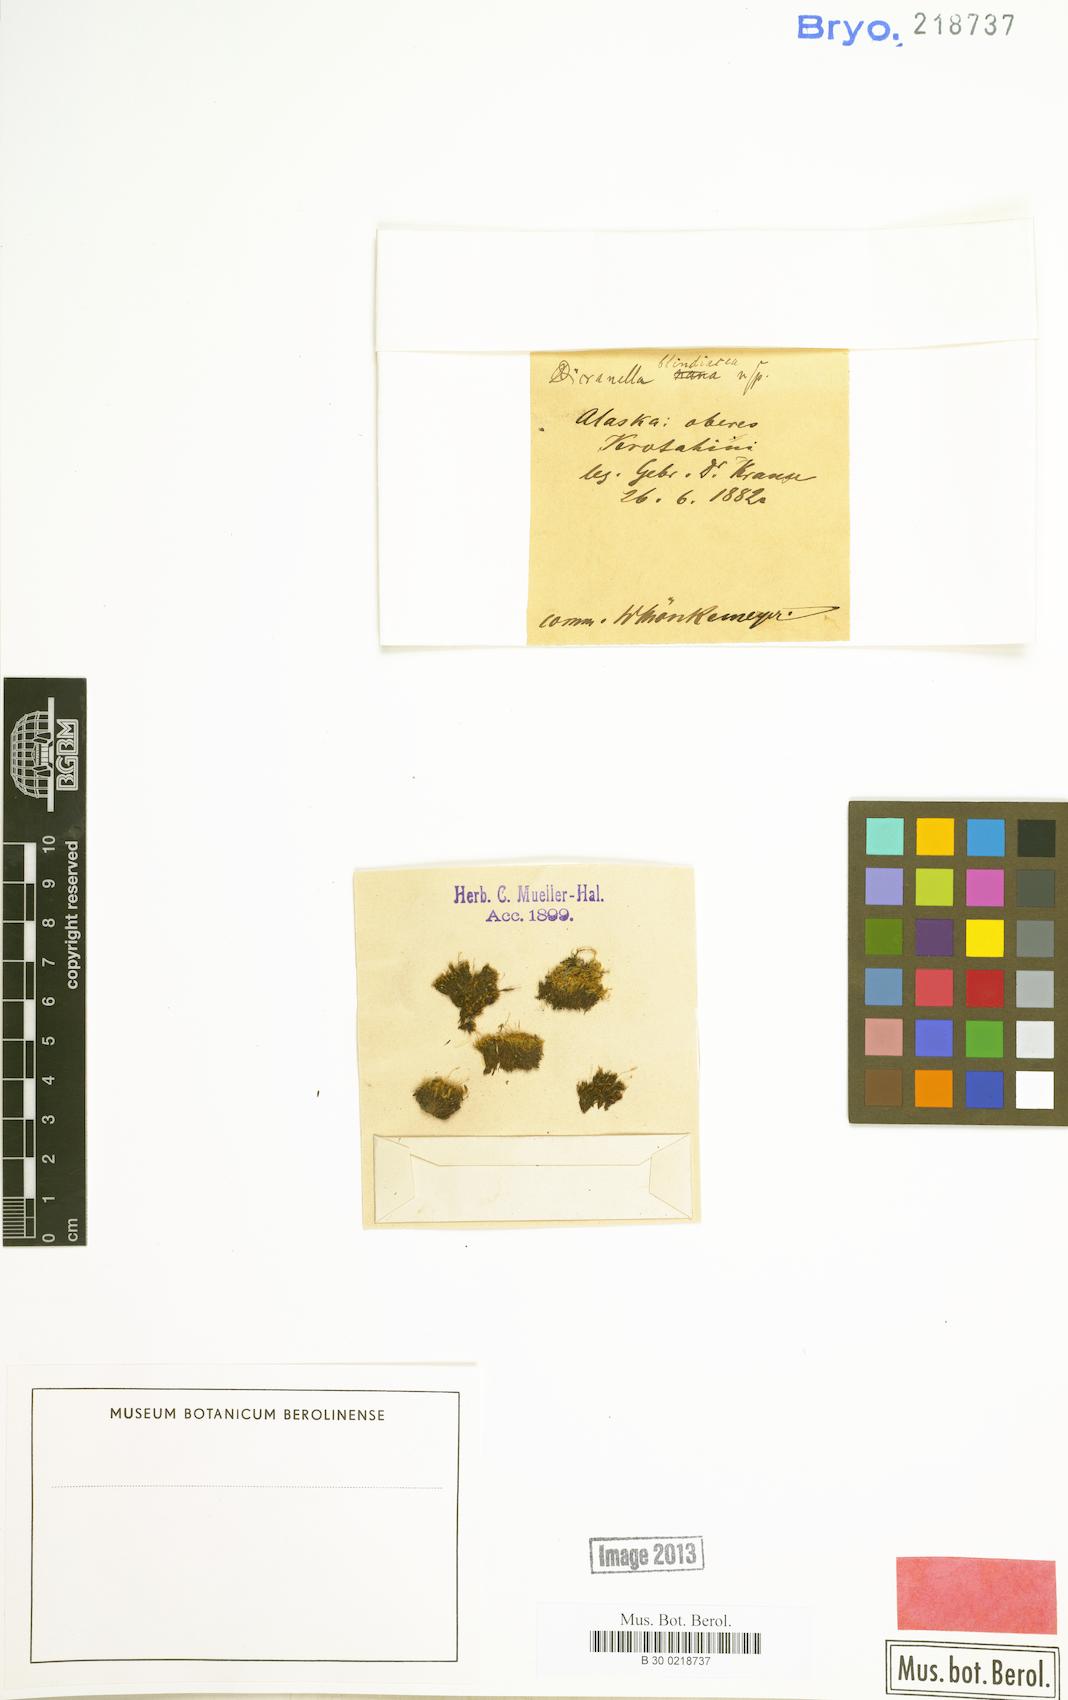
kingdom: Plantae
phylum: Bryophyta
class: Bryopsida
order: Dicranales
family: Dicranellaceae
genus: Dicranella
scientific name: Dicranella
